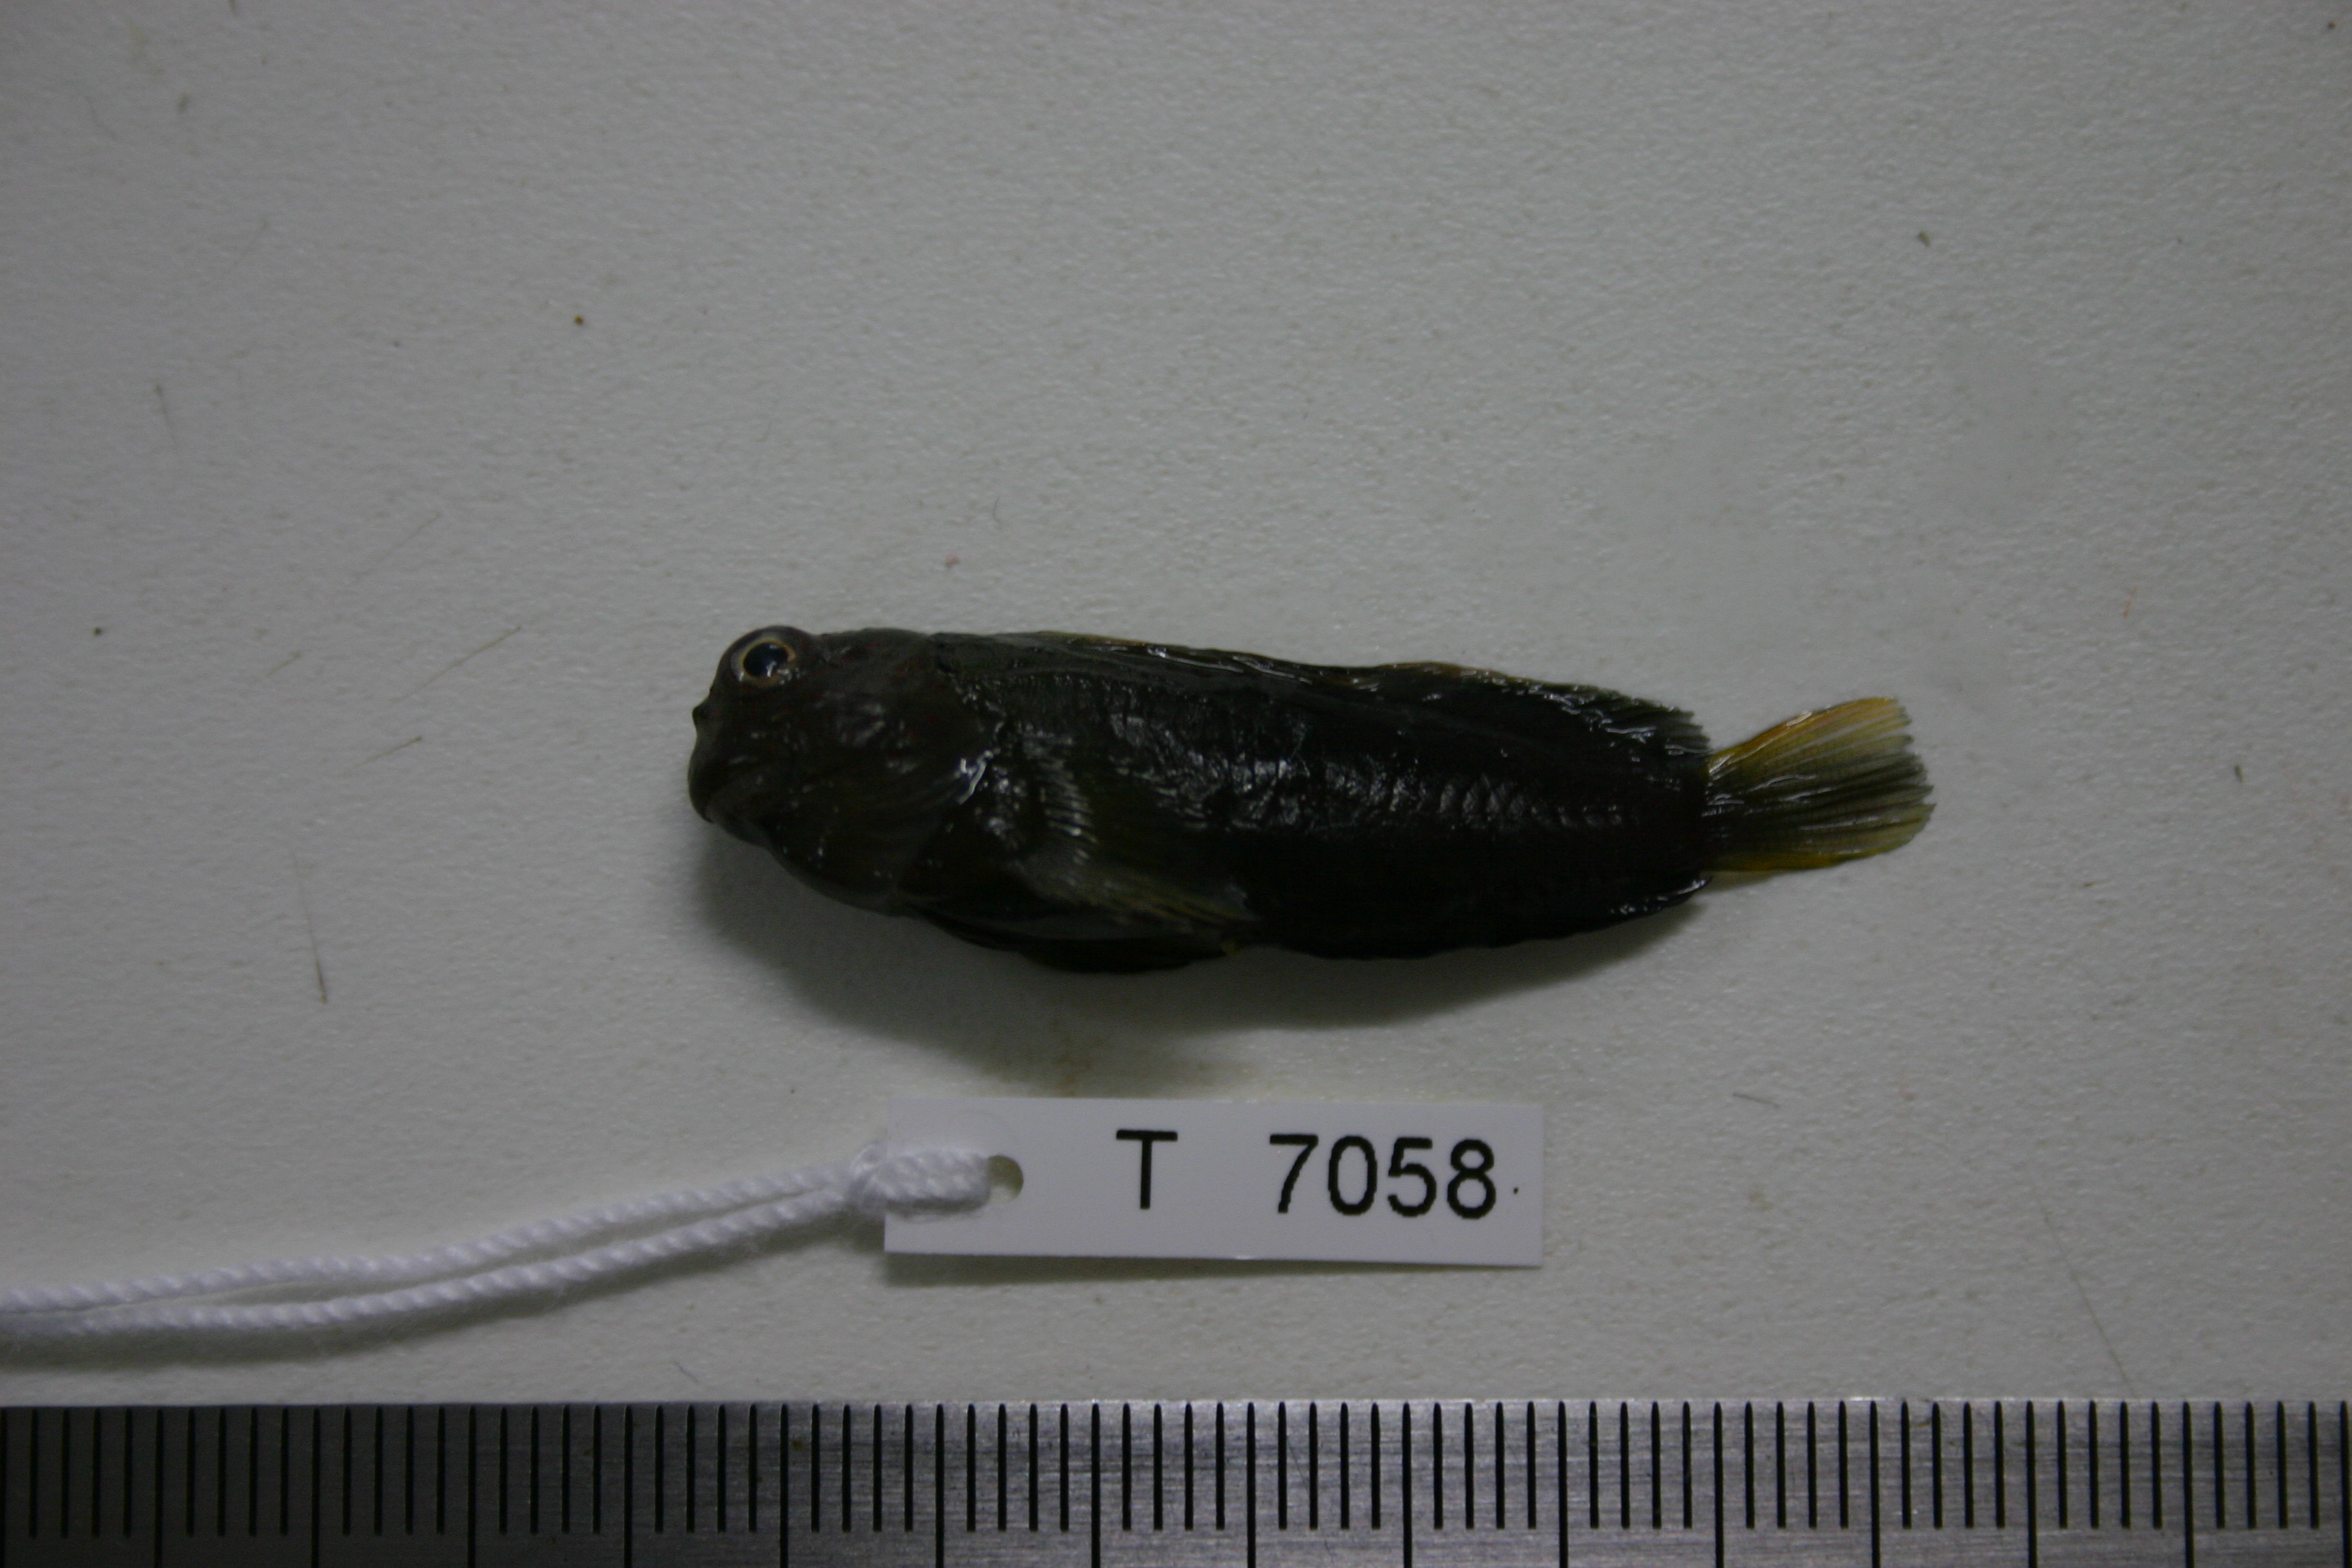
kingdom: Animalia
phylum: Chordata
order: Perciformes
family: Blenniidae
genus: Cirripectes
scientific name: Cirripectes filamentosus
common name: Filamentous blenny
